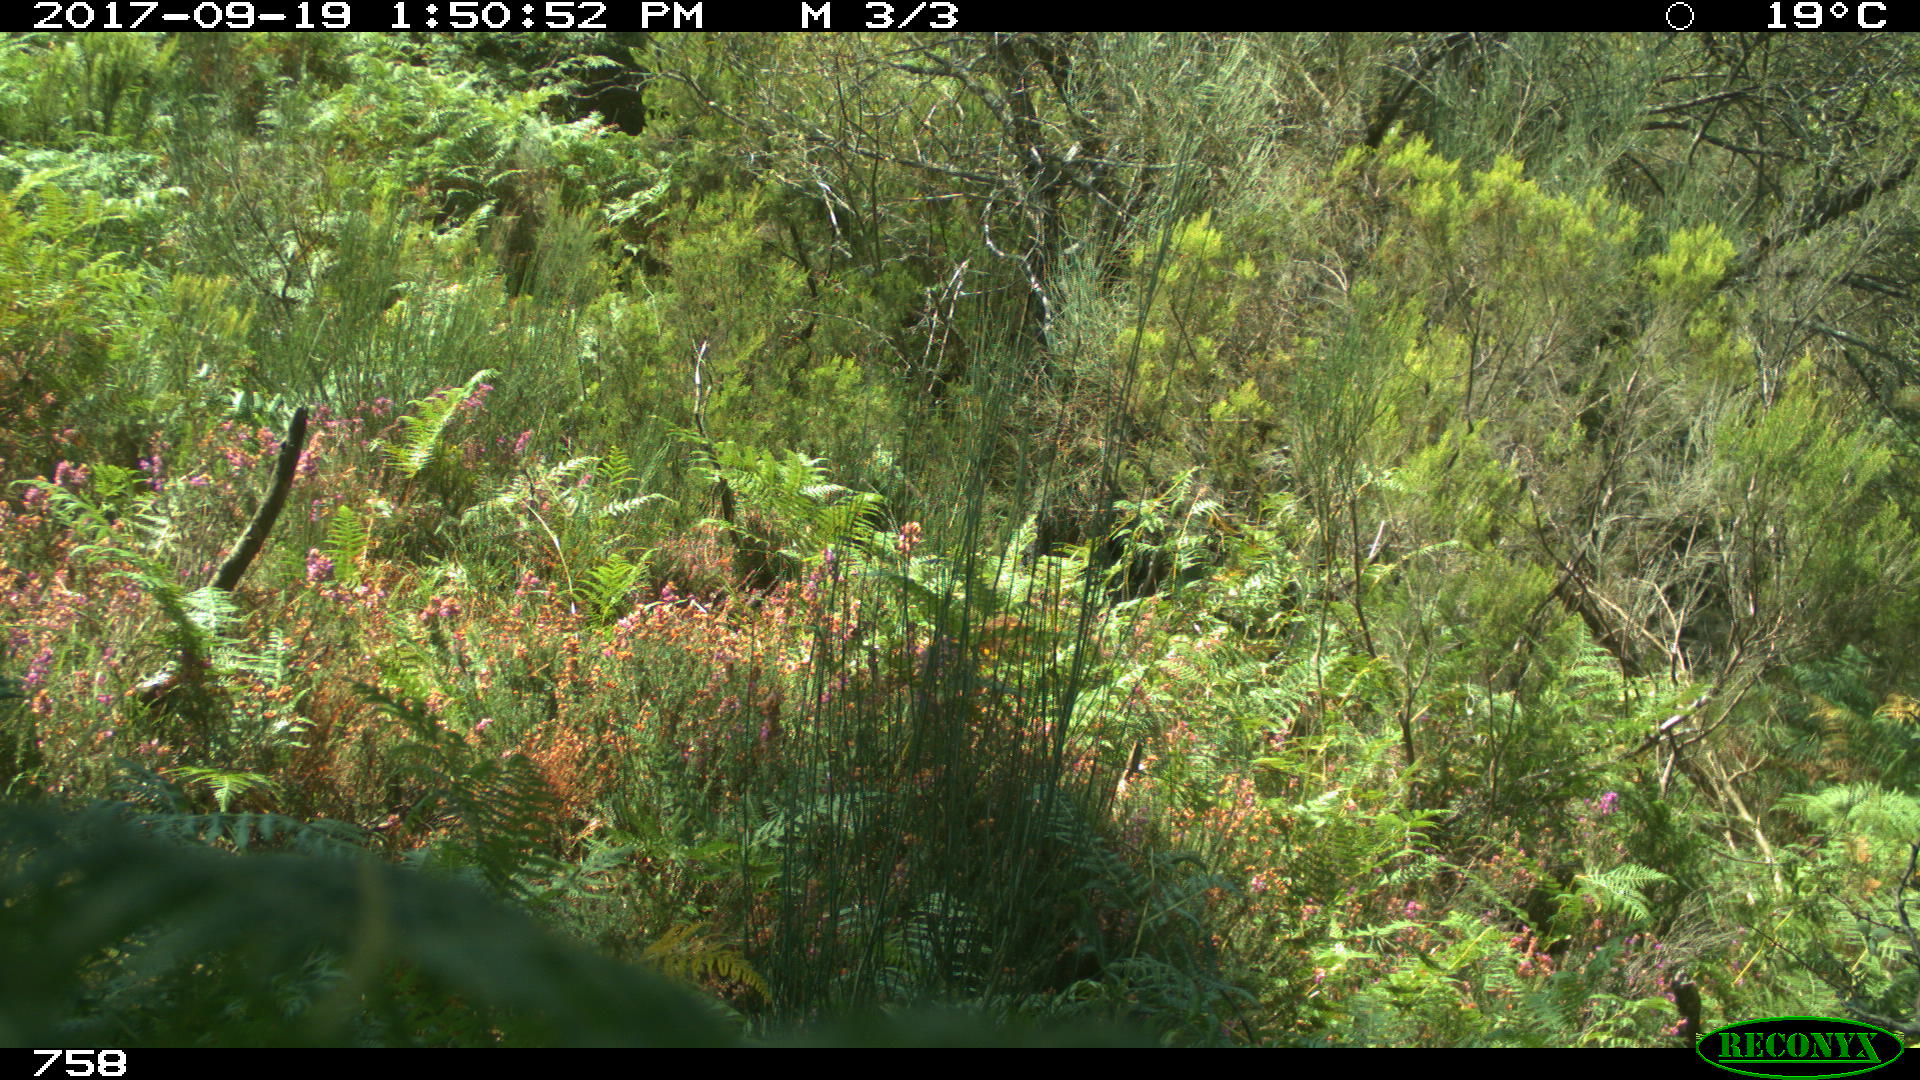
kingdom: Animalia
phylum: Chordata
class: Mammalia
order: Perissodactyla
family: Equidae
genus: Equus
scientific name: Equus caballus
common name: Horse
